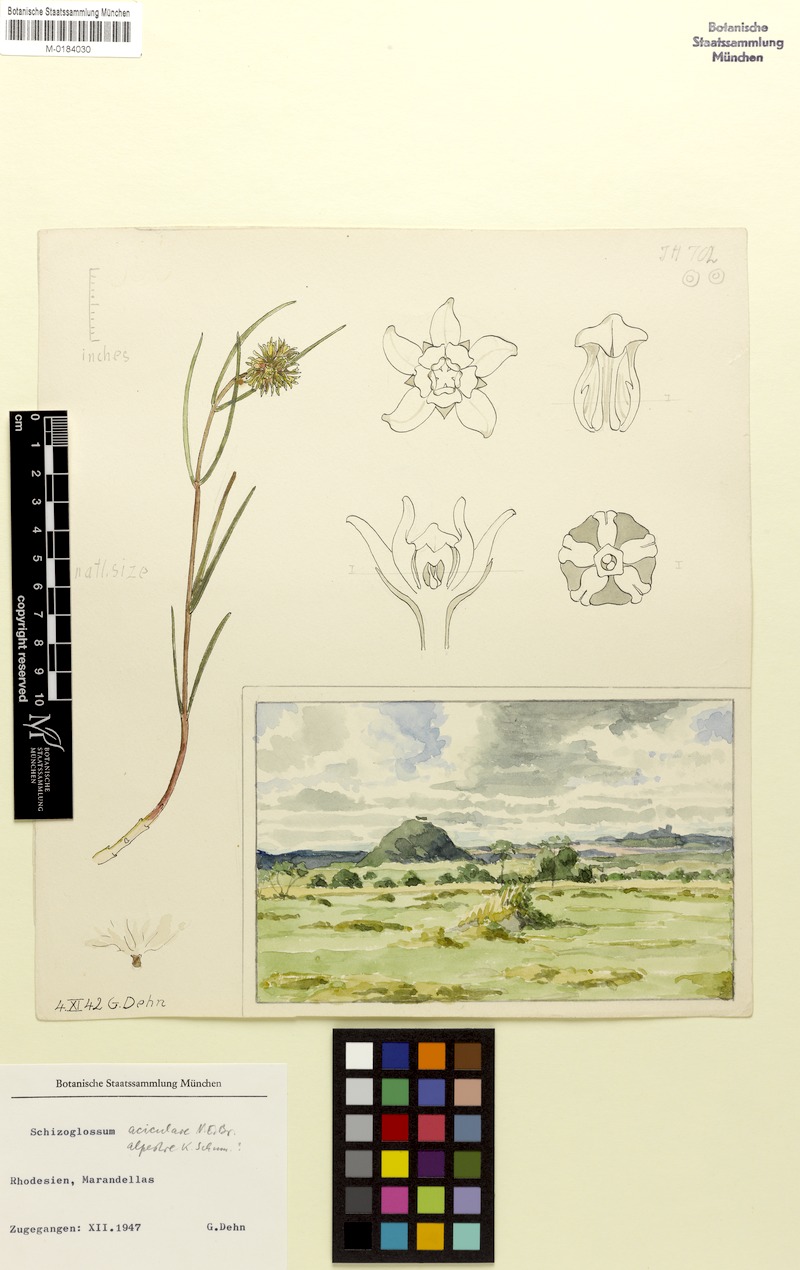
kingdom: Plantae
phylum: Tracheophyta
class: Magnoliopsida
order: Gentianales
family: Apocynaceae
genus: Schizoglossum
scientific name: Schizoglossum
